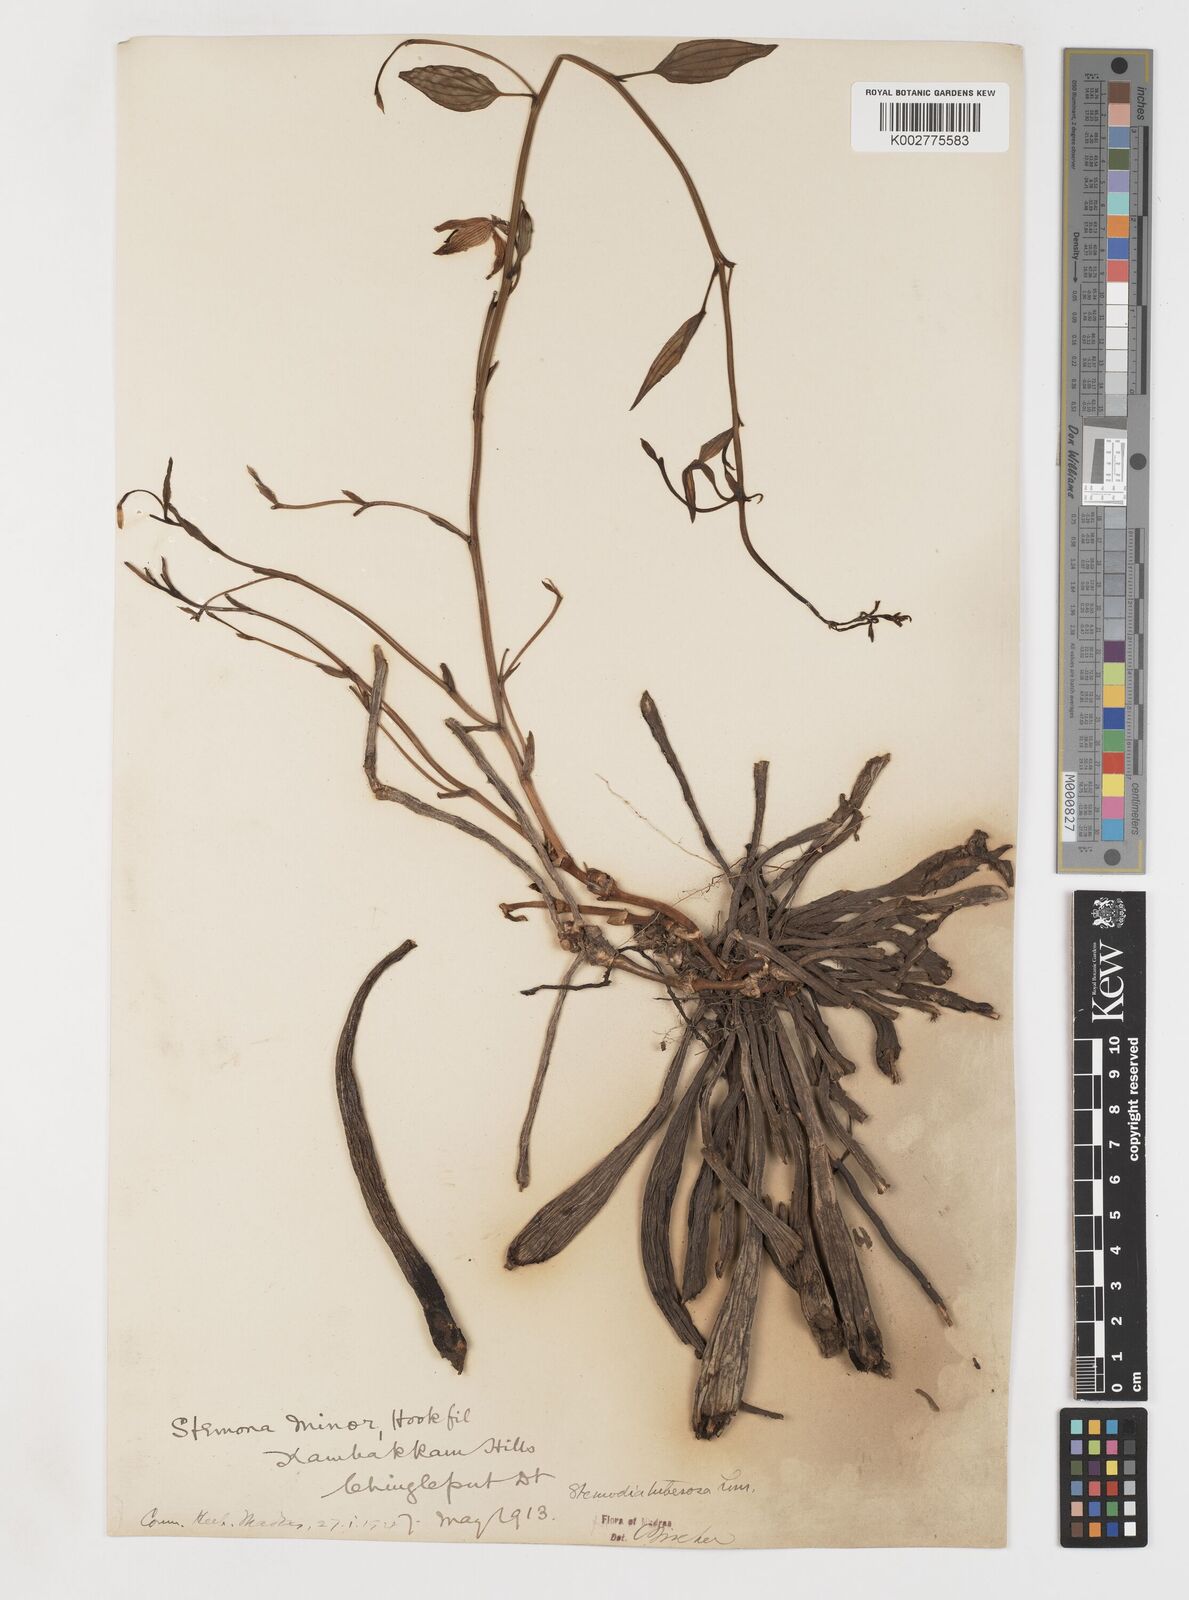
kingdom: Plantae
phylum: Tracheophyta
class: Liliopsida
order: Pandanales
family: Stemonaceae
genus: Stemona
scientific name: Stemona tuberosa
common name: Stemona
